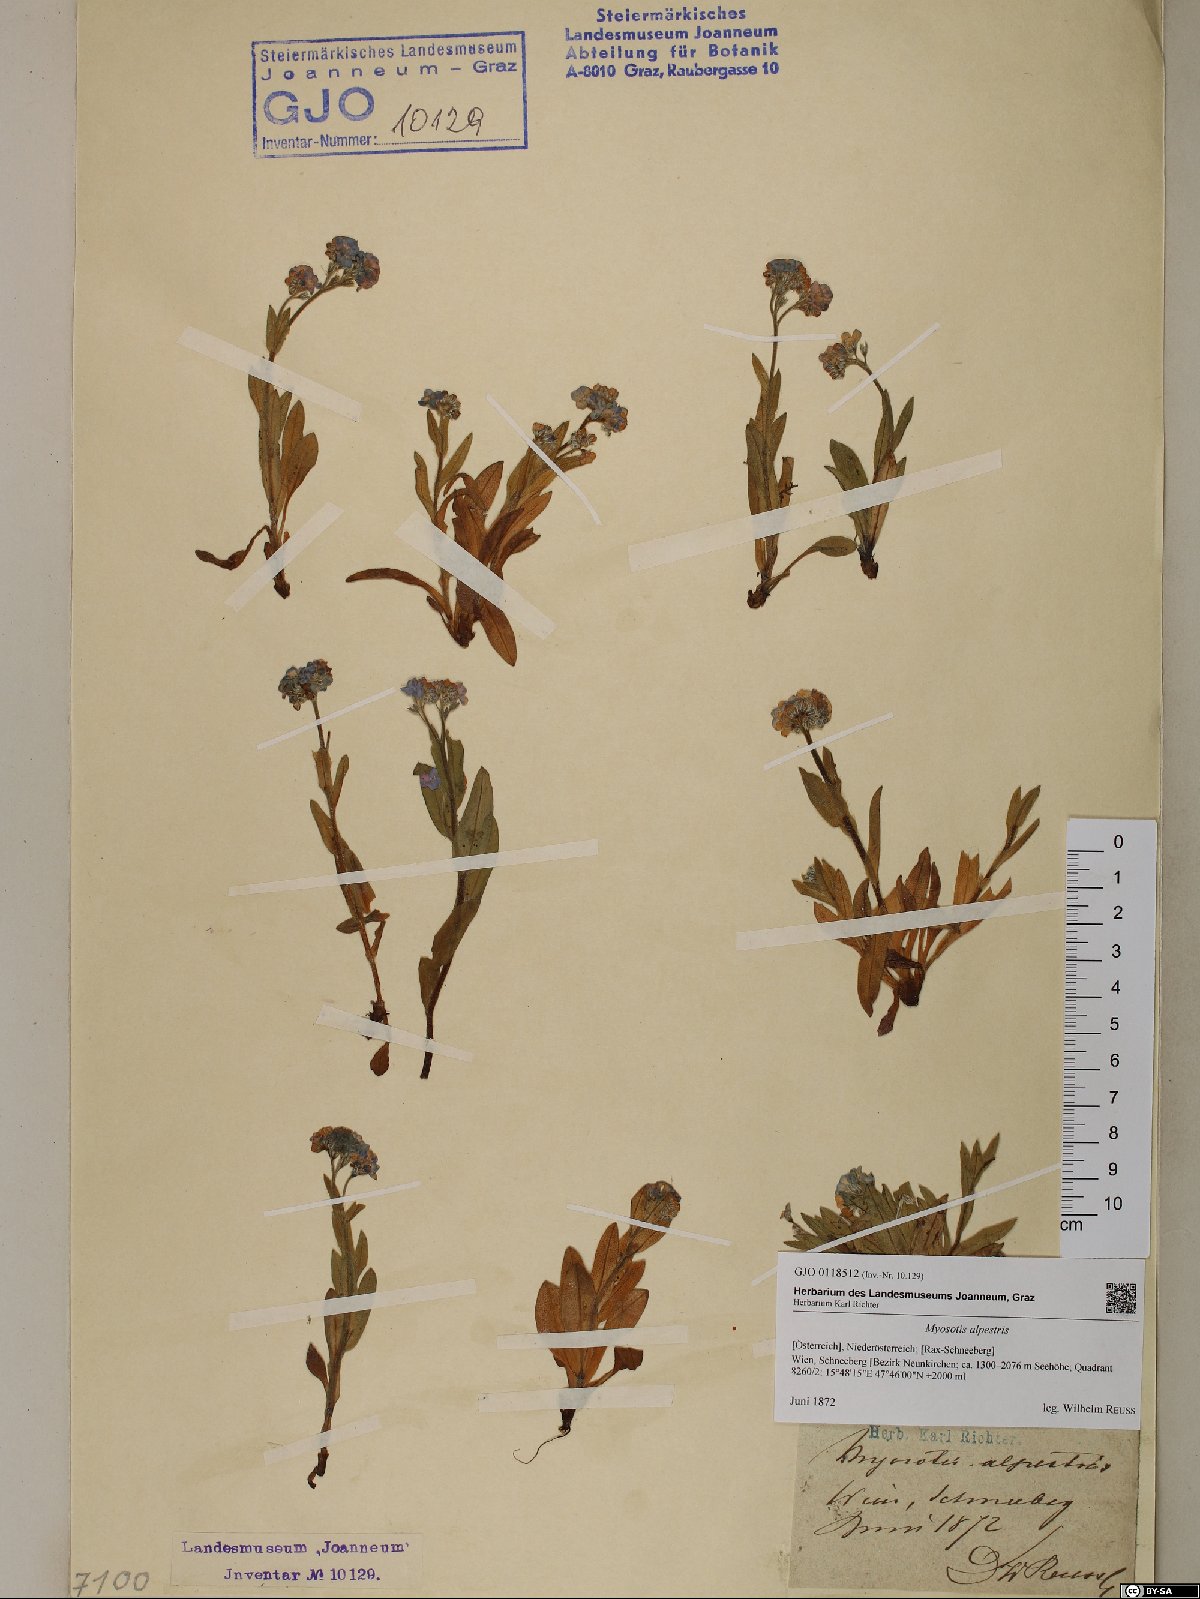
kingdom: Plantae
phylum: Tracheophyta
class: Magnoliopsida
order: Boraginales
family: Boraginaceae
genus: Myosotis
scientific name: Myosotis alpestris
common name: Alpine forget-me-not
